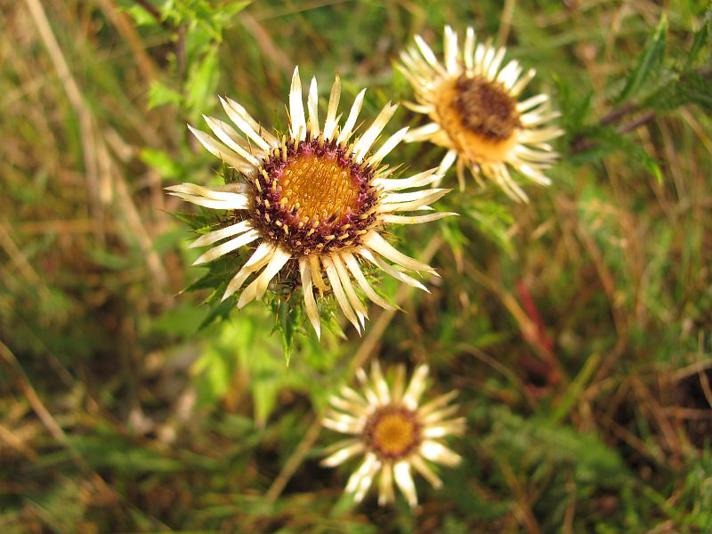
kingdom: Plantae
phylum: Tracheophyta
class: Magnoliopsida
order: Asterales
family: Asteraceae
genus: Carlina
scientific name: Carlina vulgaris
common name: Bakketidsel
